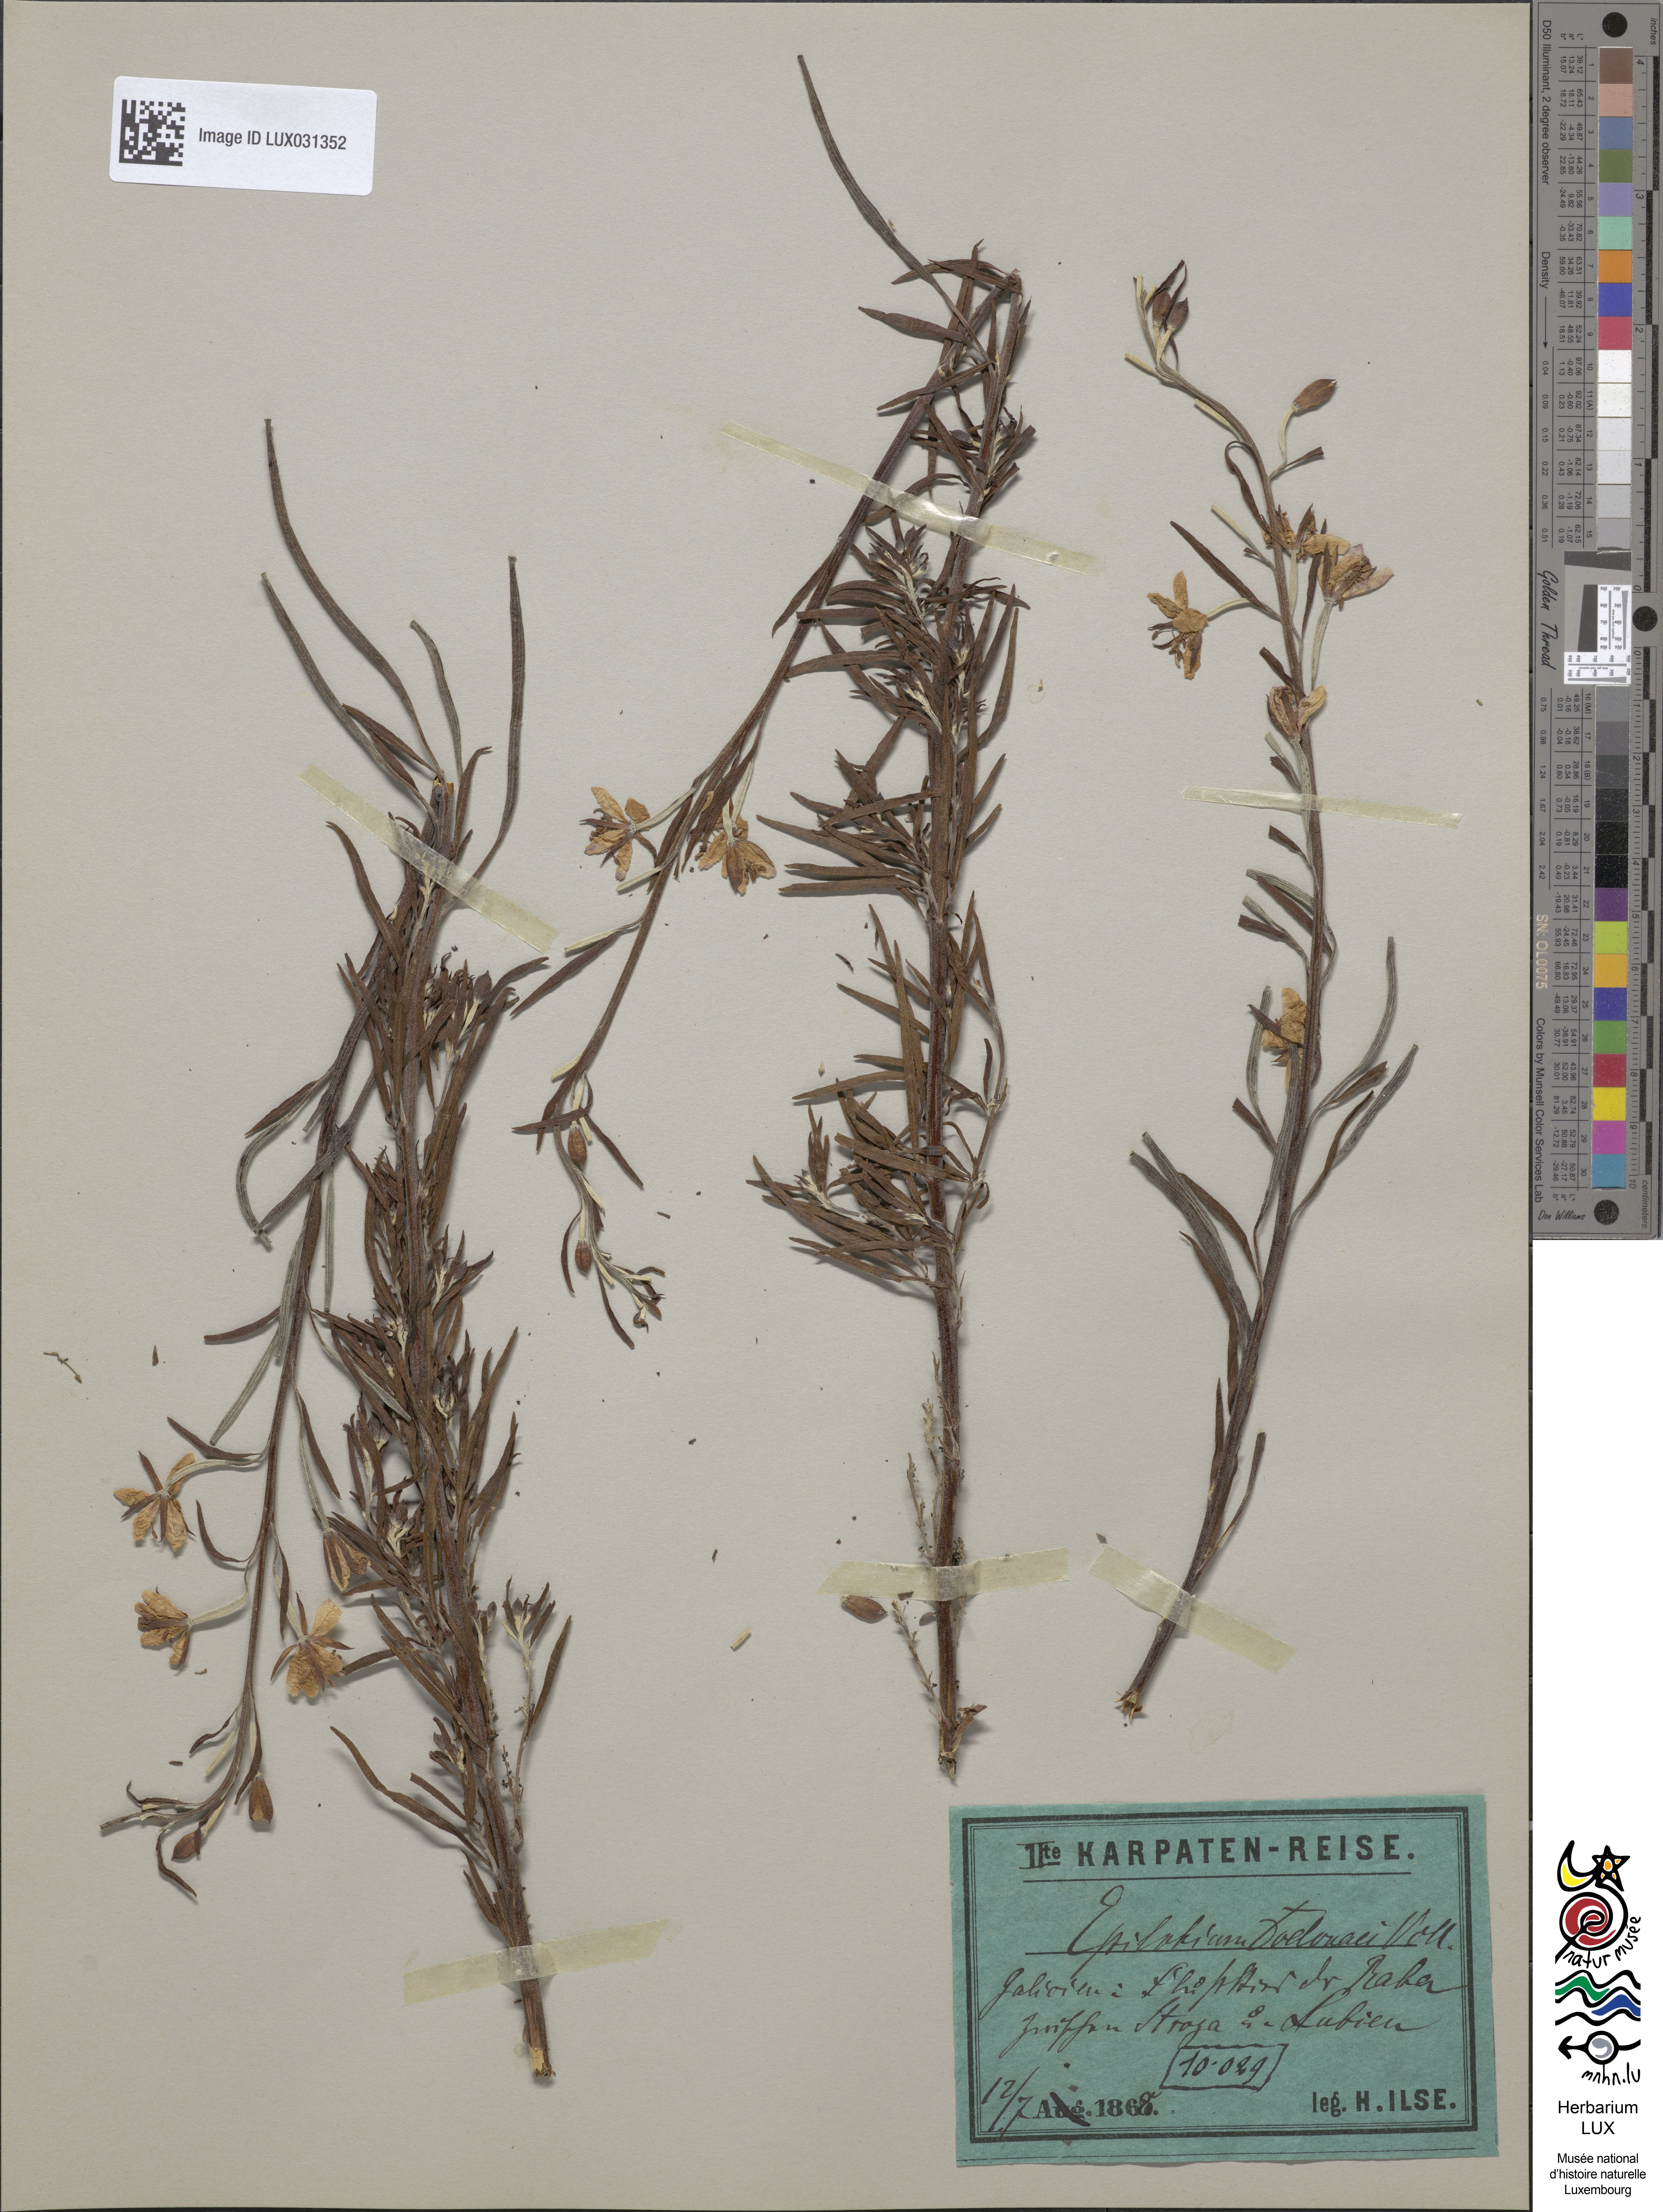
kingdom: Plantae
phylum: Tracheophyta
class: Magnoliopsida
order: Myrtales
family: Onagraceae
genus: Chamaenerion
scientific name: Chamaenerion dodonaei
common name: Rosemary-leaved willowherb
